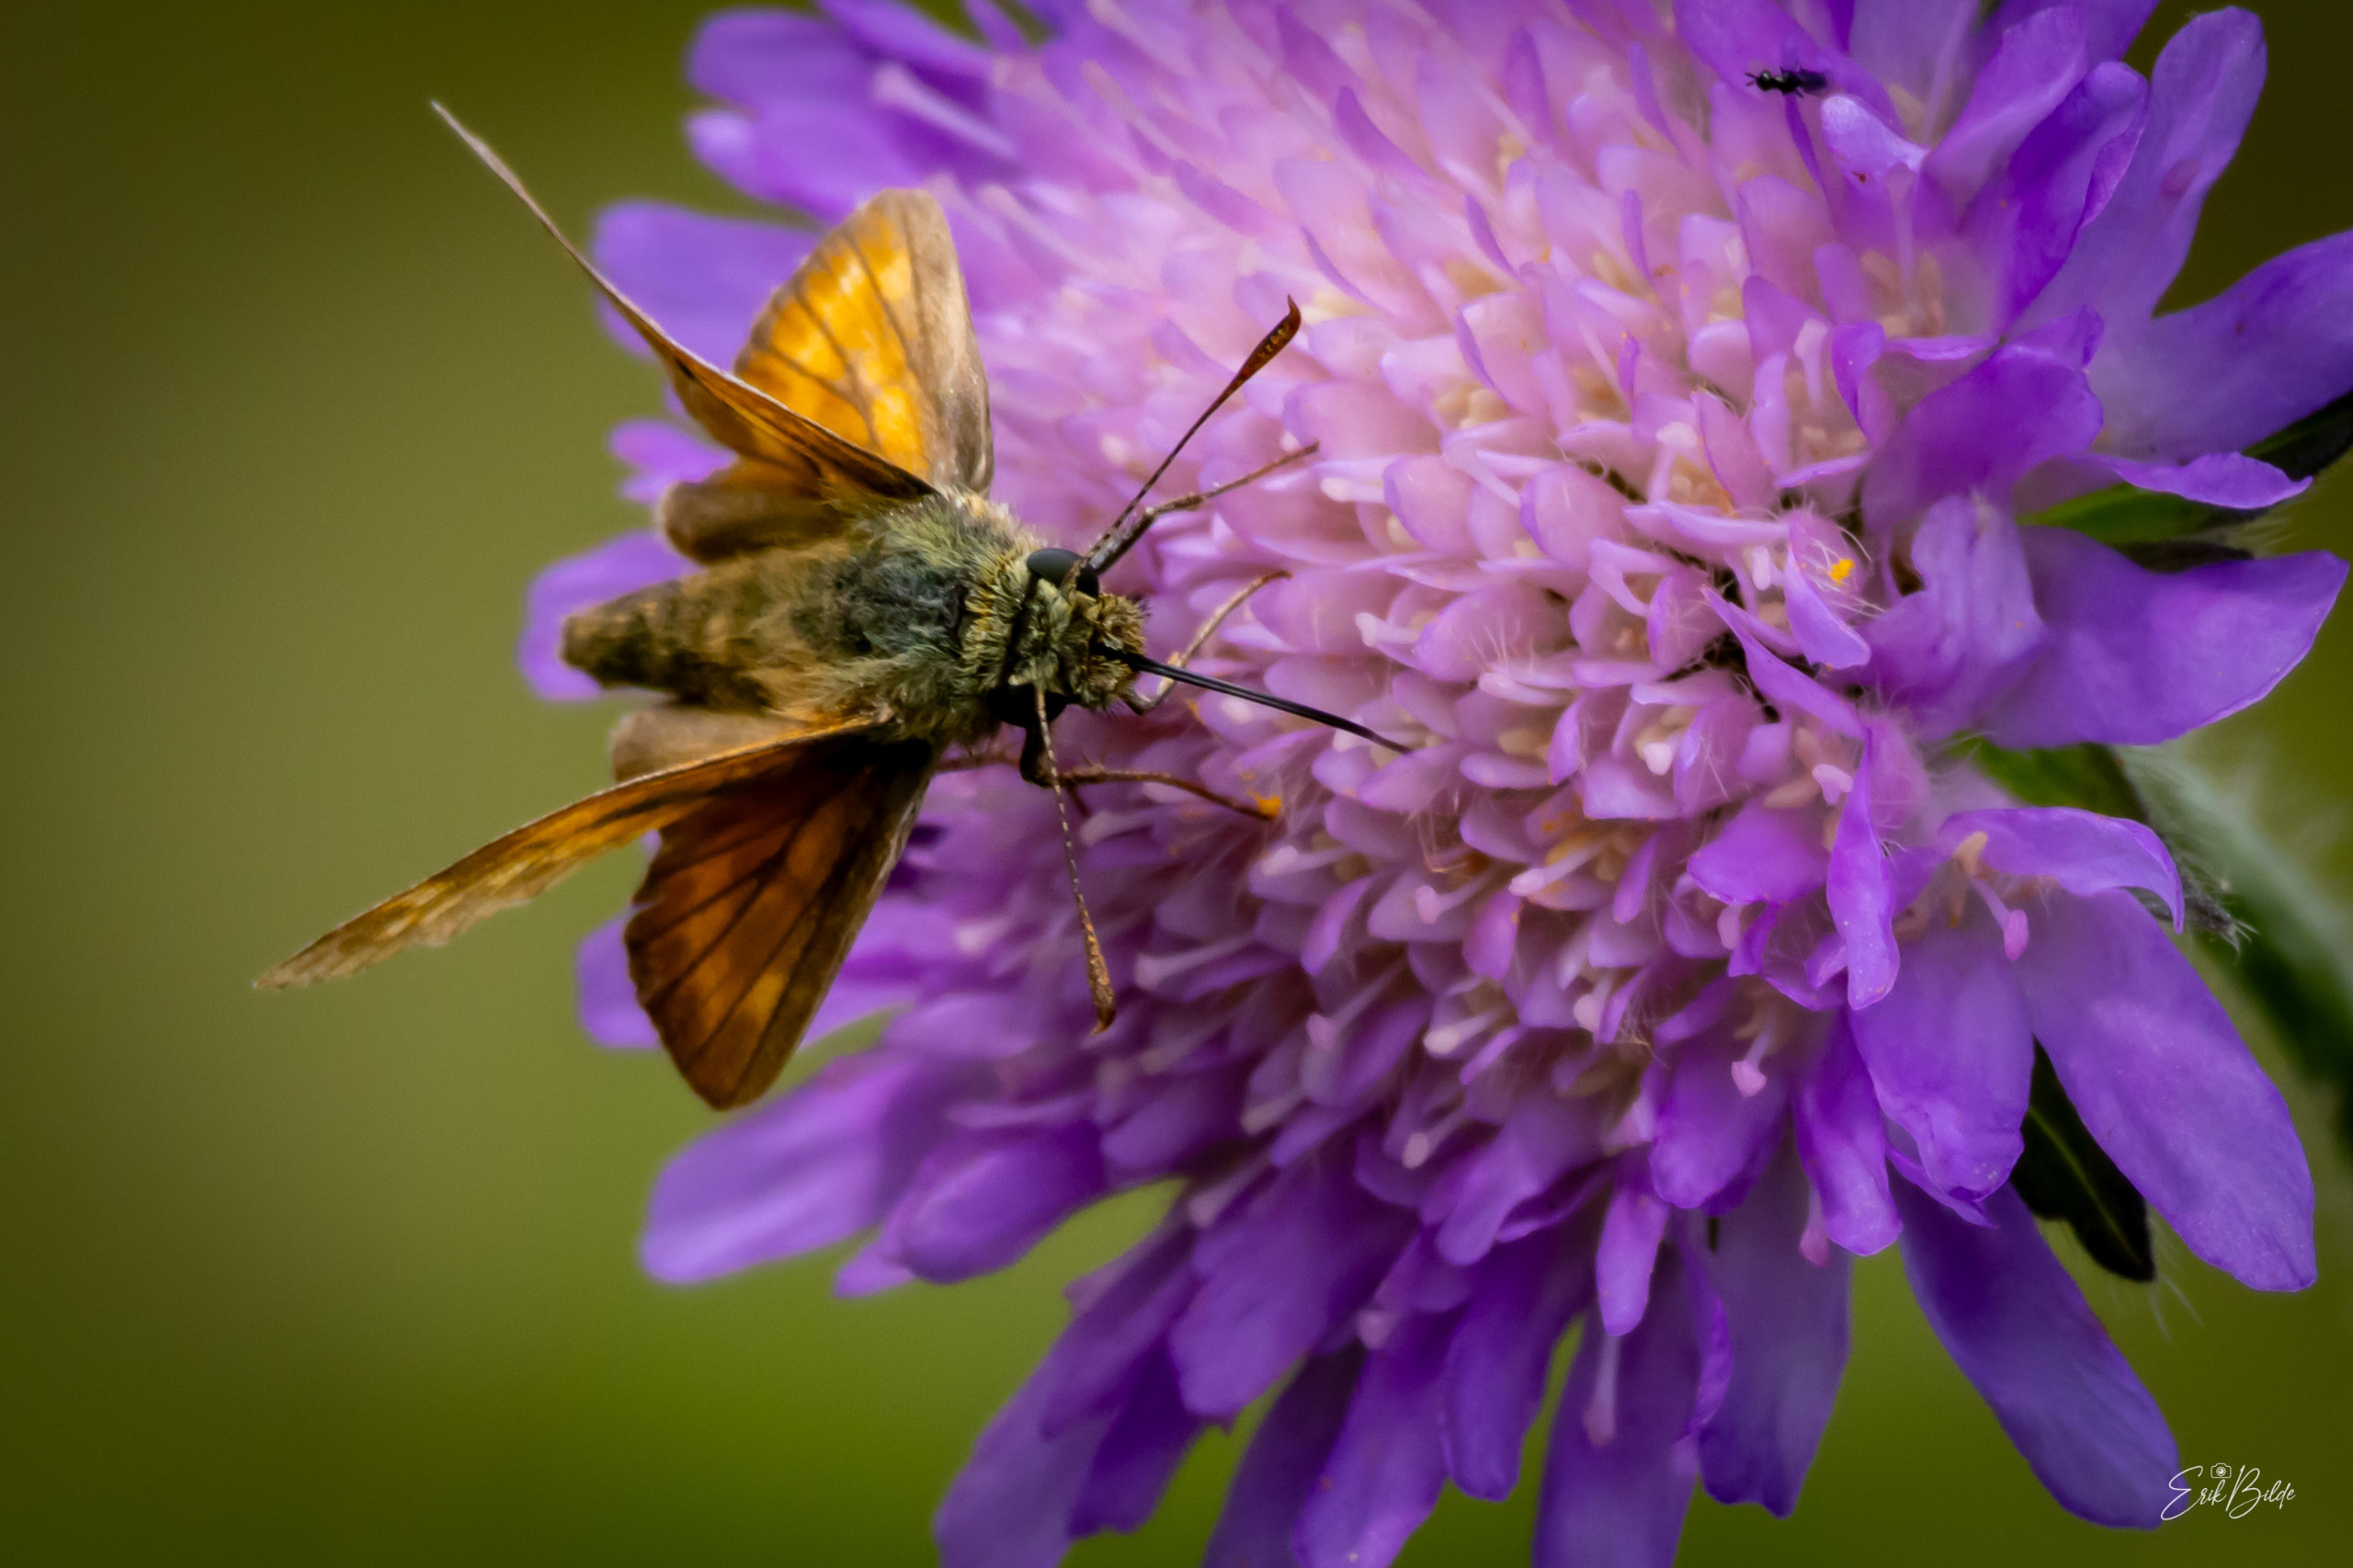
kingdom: Animalia
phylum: Arthropoda
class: Insecta
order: Lepidoptera
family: Hesperiidae
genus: Ochlodes
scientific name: Ochlodes venata
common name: Stor bredpande
